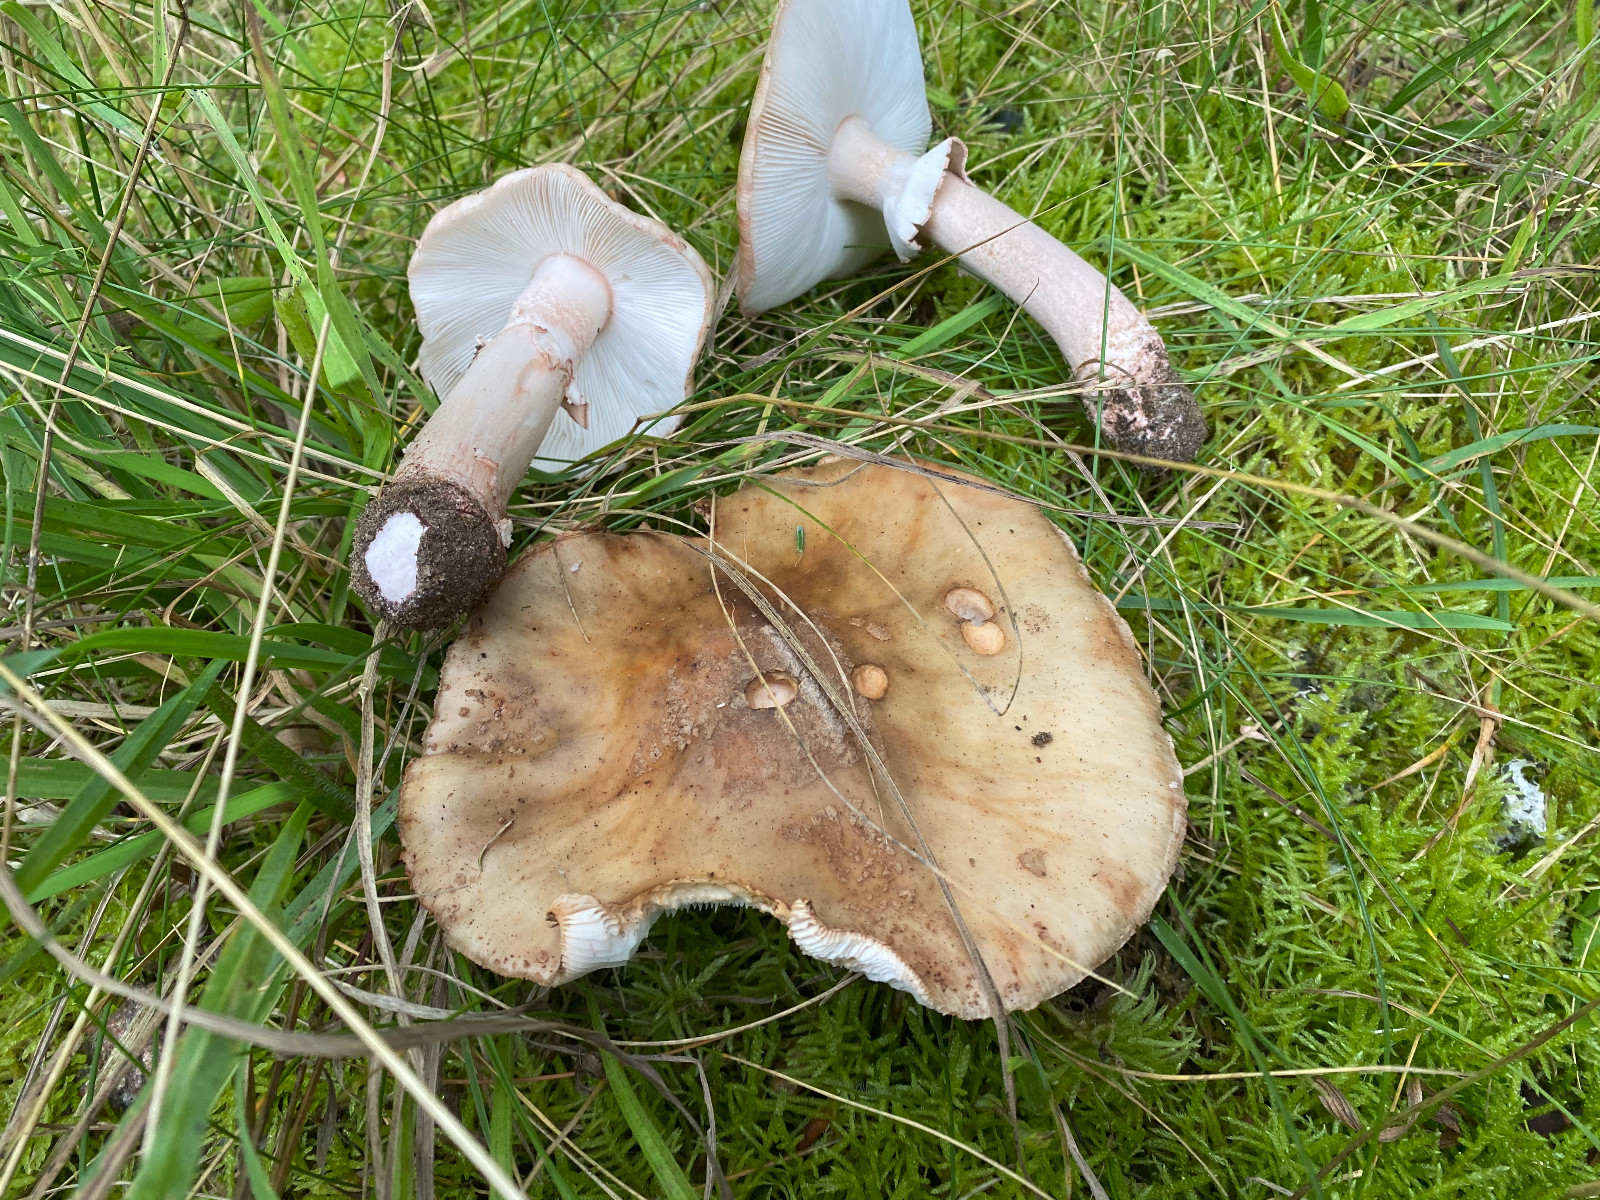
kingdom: Fungi
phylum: Basidiomycota
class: Agaricomycetes
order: Agaricales
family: Amanitaceae
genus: Amanita
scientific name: Amanita rubescens
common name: rødmende fluesvamp
